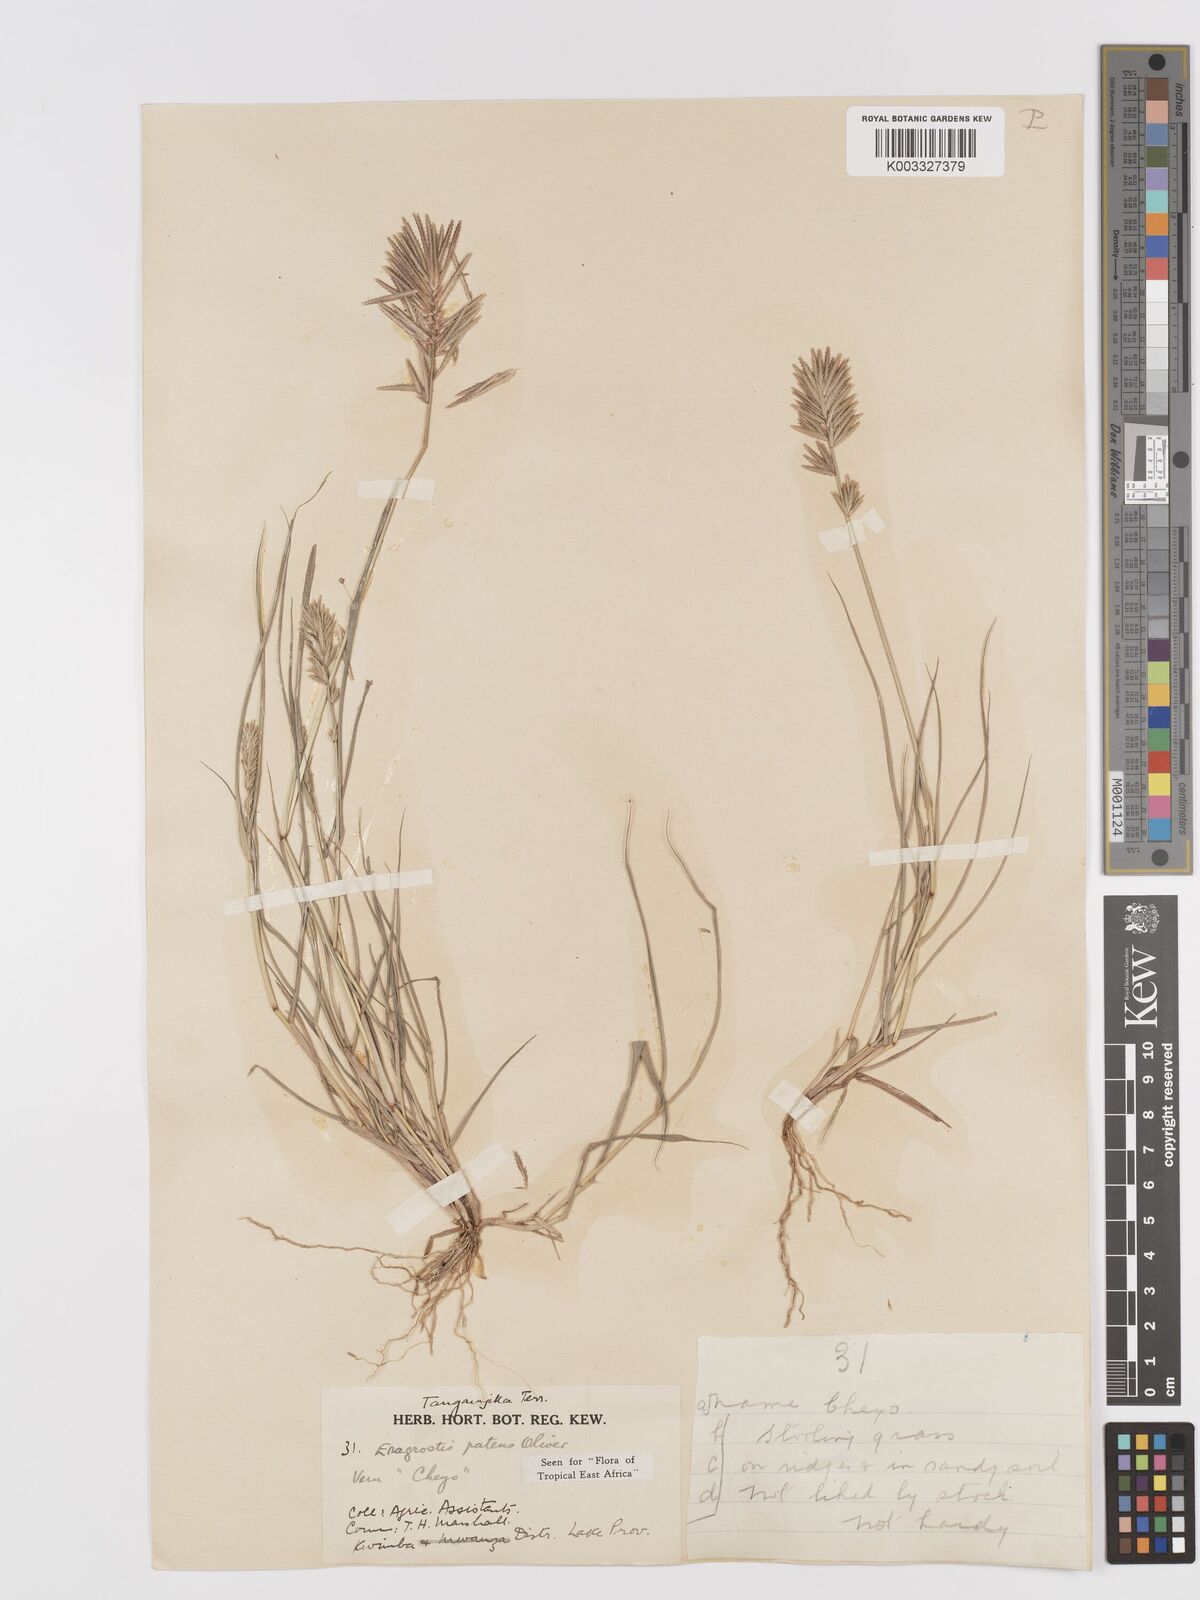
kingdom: Plantae
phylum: Tracheophyta
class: Liliopsida
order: Poales
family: Poaceae
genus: Eragrostis
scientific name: Eragrostis patens
